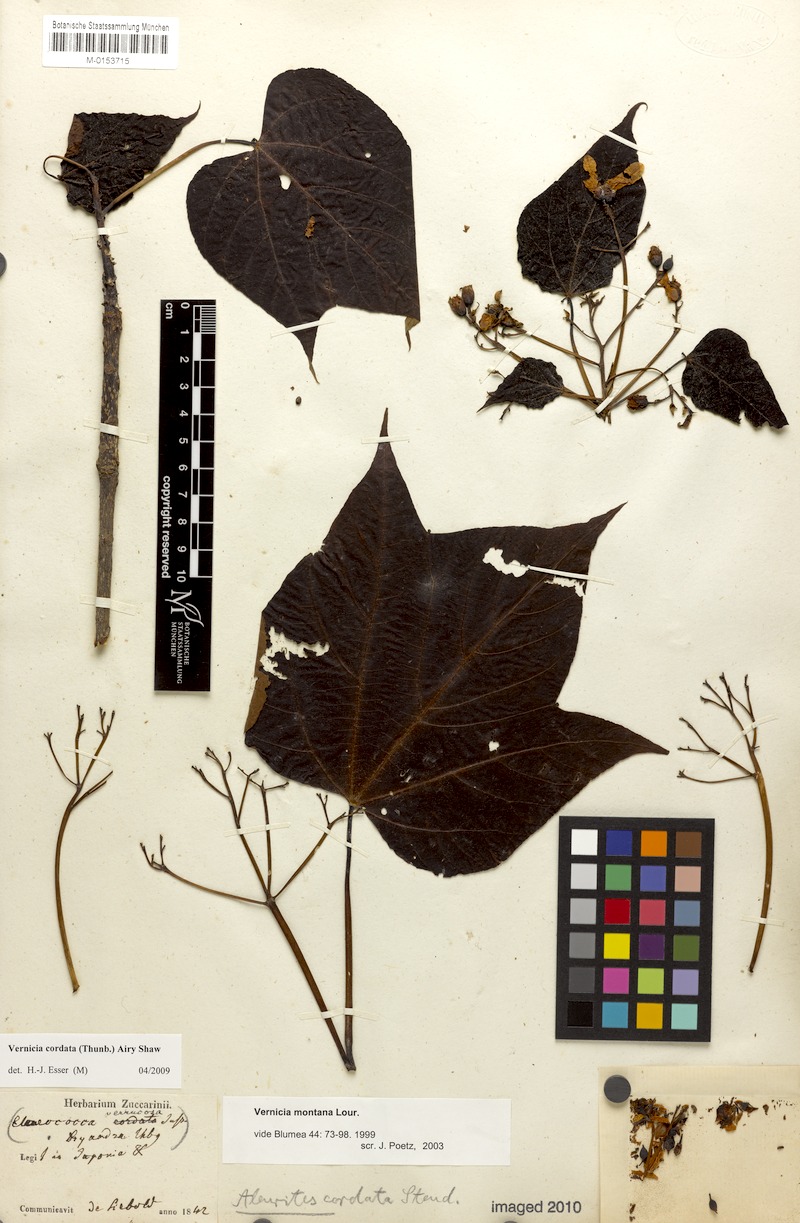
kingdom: Plantae
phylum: Tracheophyta
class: Magnoliopsida
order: Malpighiales
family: Euphorbiaceae
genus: Vernicia
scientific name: Vernicia cordata
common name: Japanese tung-oil-tree
